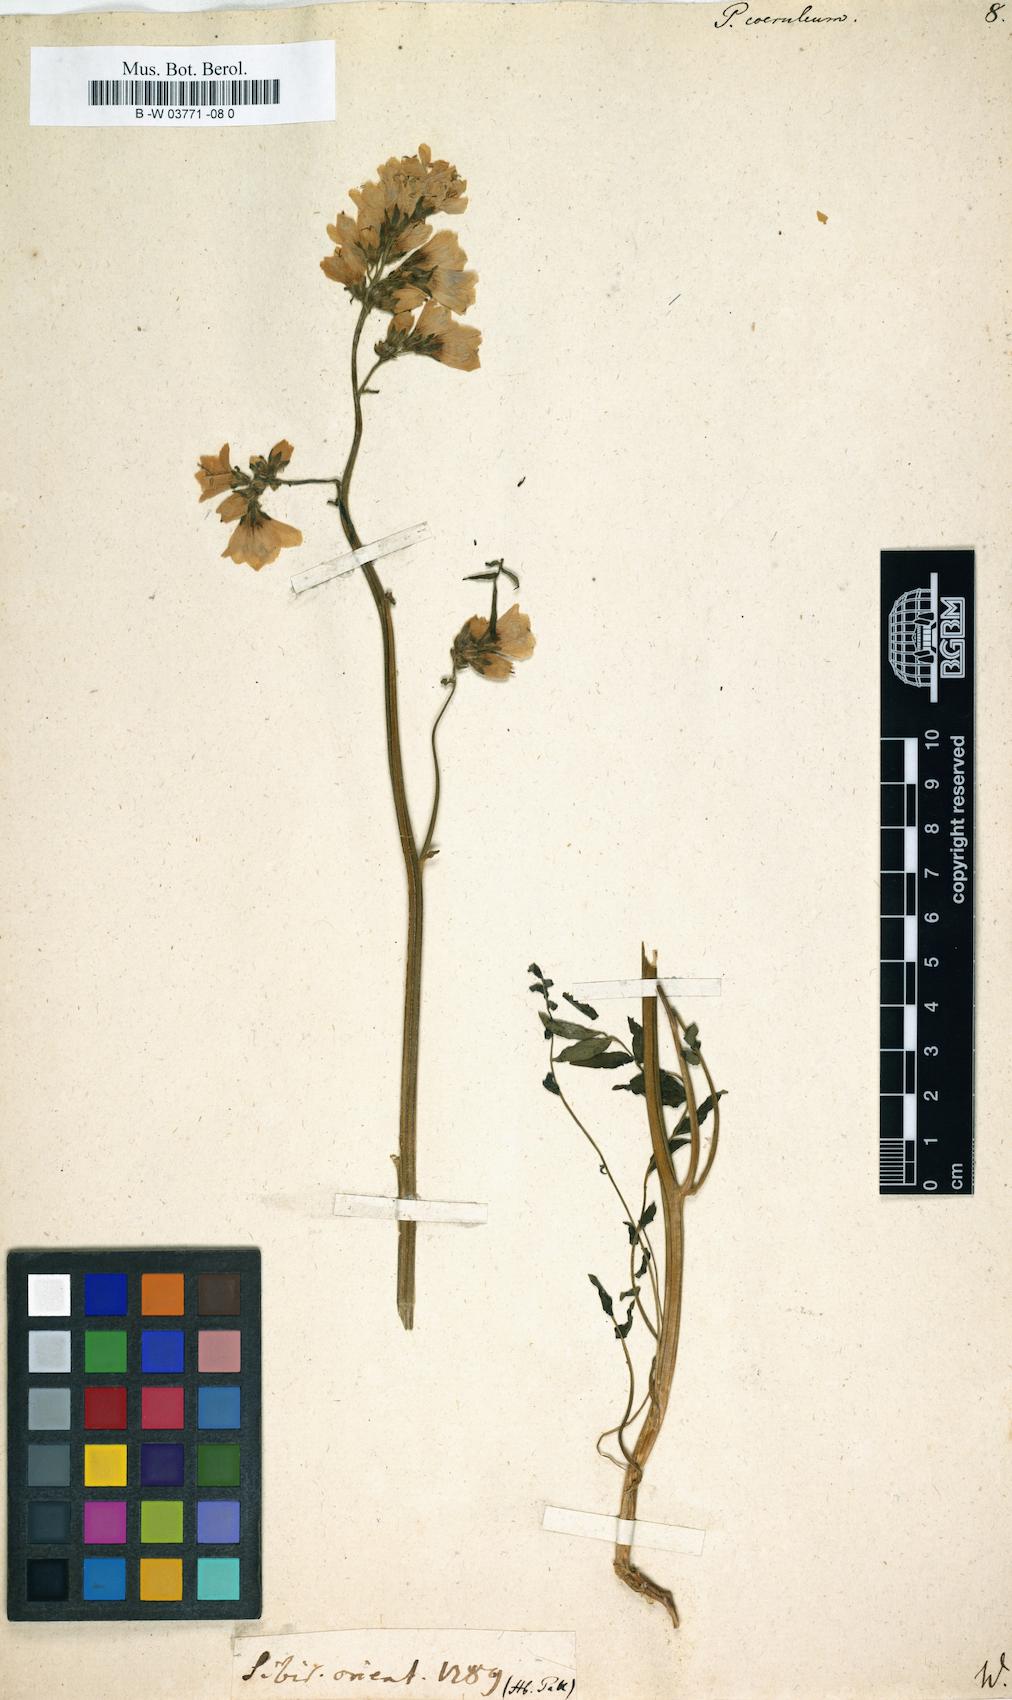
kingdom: Plantae
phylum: Tracheophyta
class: Magnoliopsida
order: Ericales
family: Polemoniaceae
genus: Polemonium
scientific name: Polemonium caeruleum
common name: Jacob's-ladder
